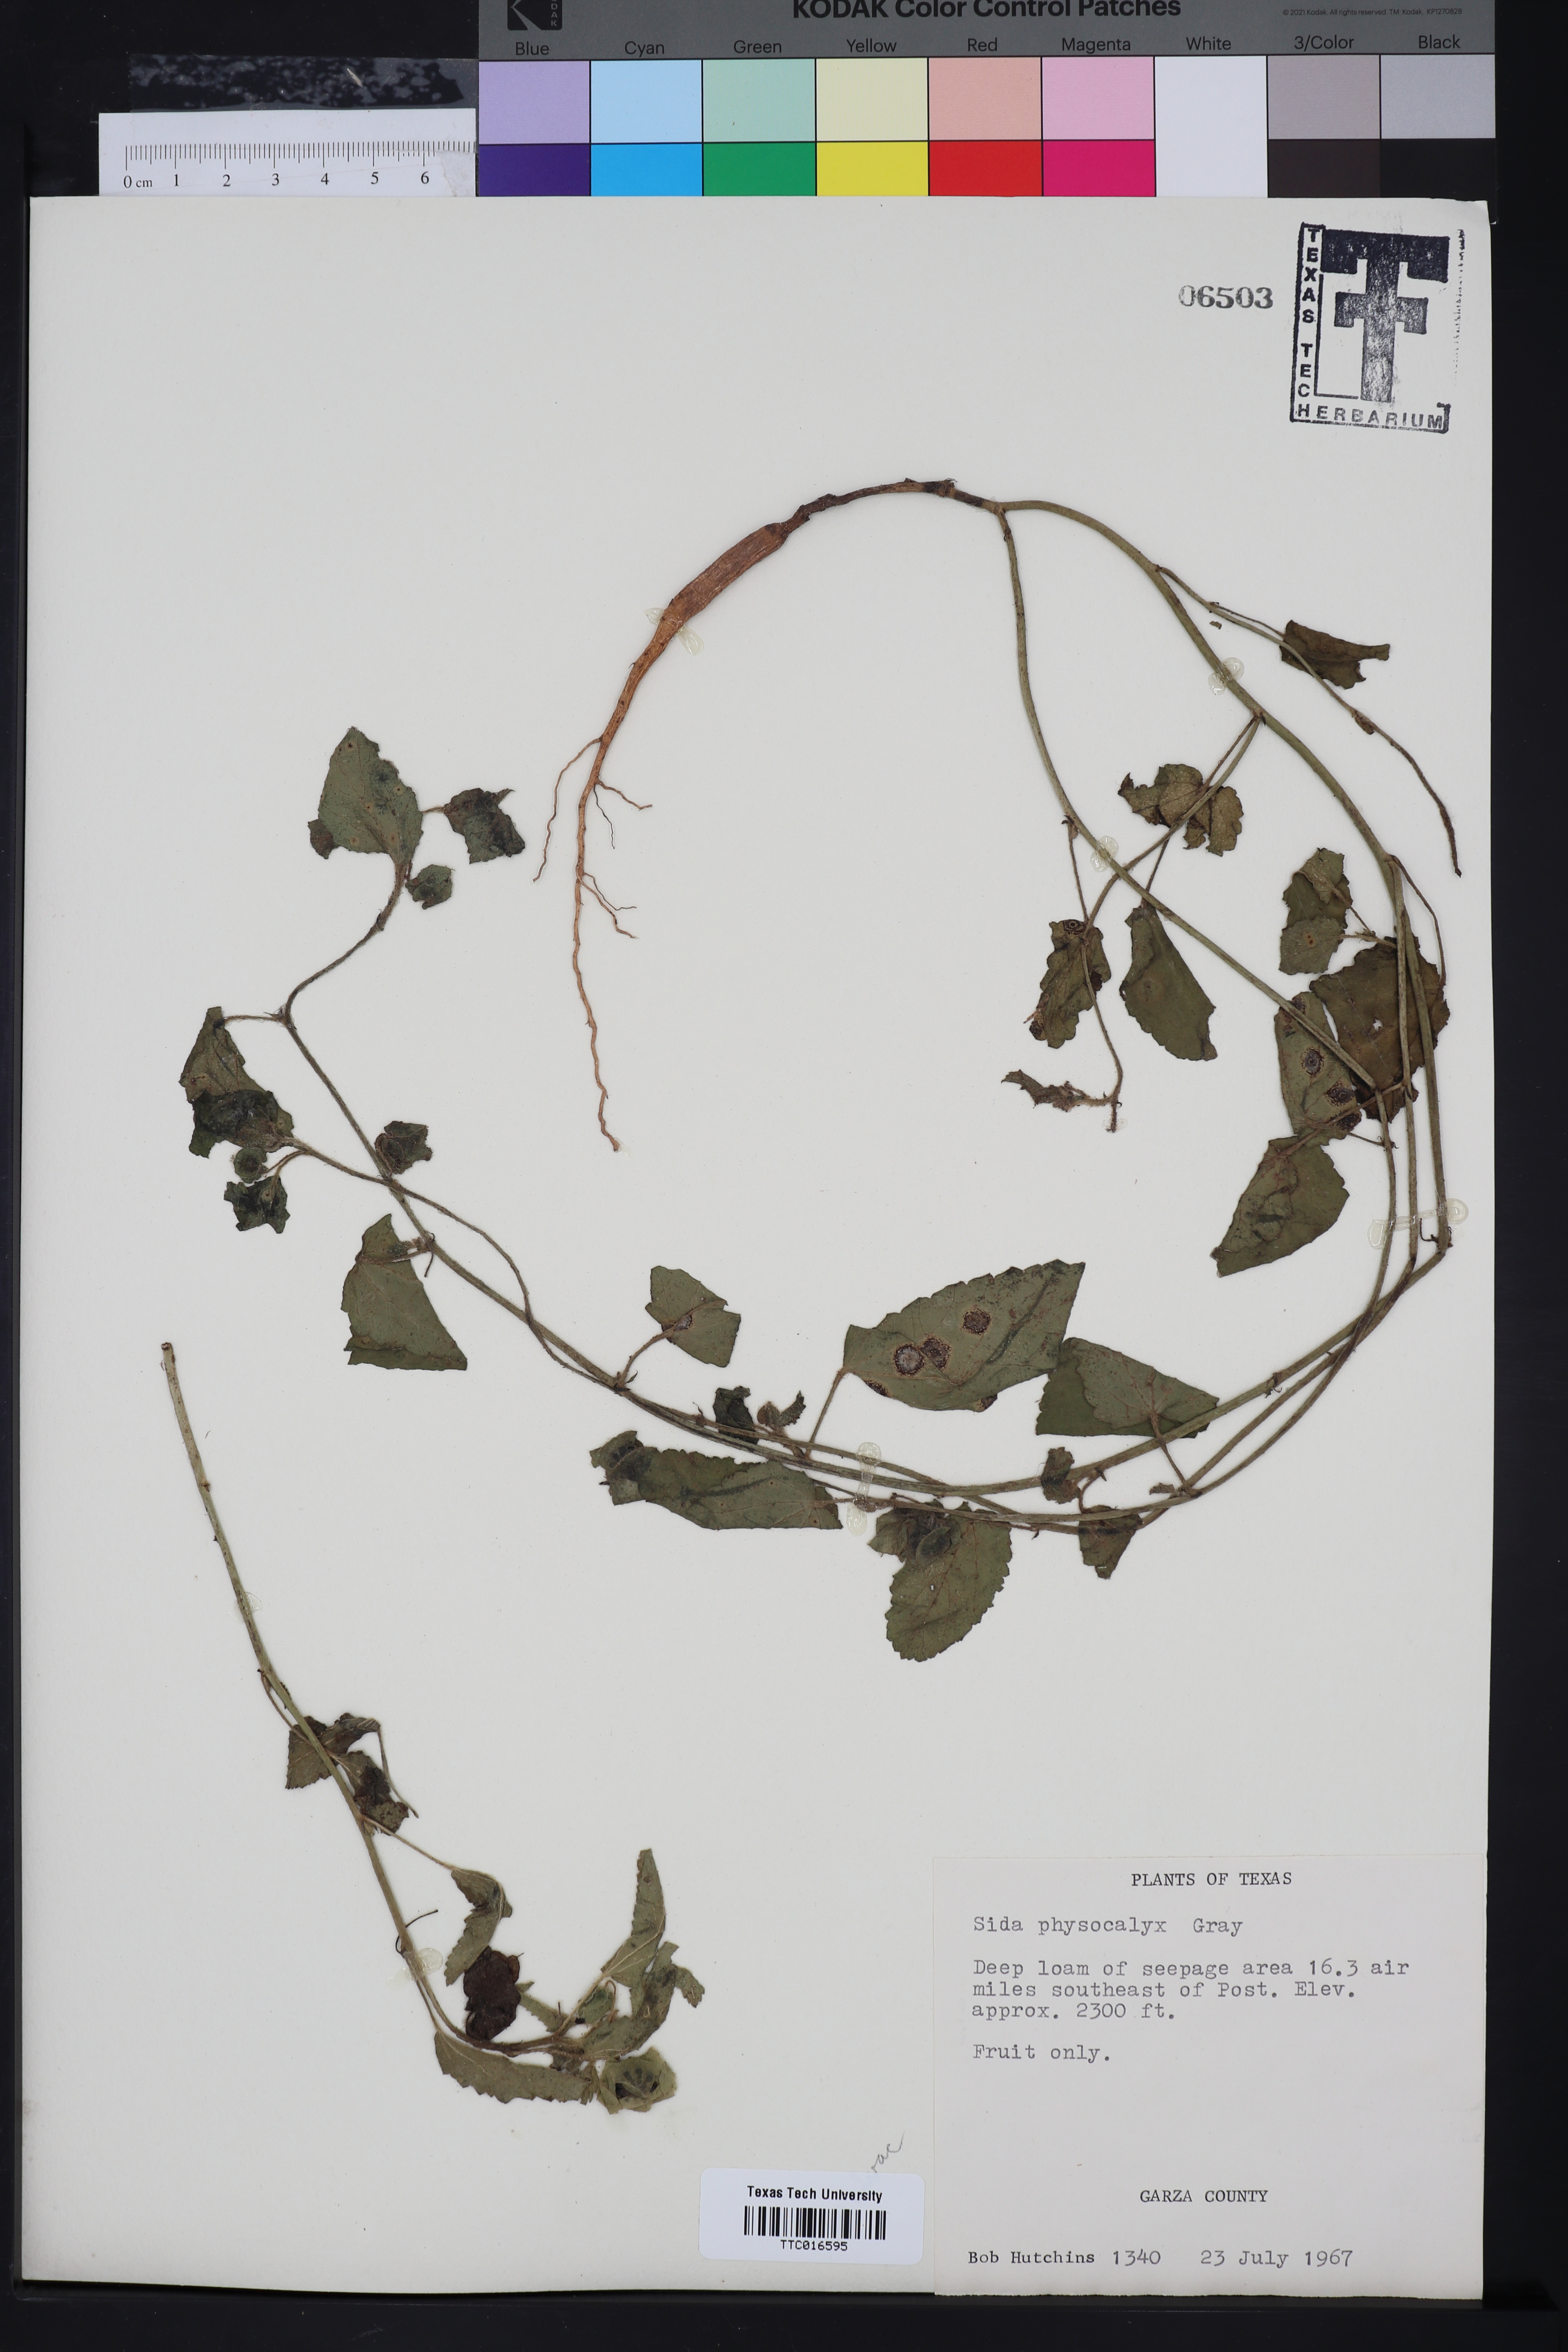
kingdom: Plantae
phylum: Tracheophyta
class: Magnoliopsida
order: Malvales
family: Malvaceae
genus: Rhynchosida
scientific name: Rhynchosida physocalyx
